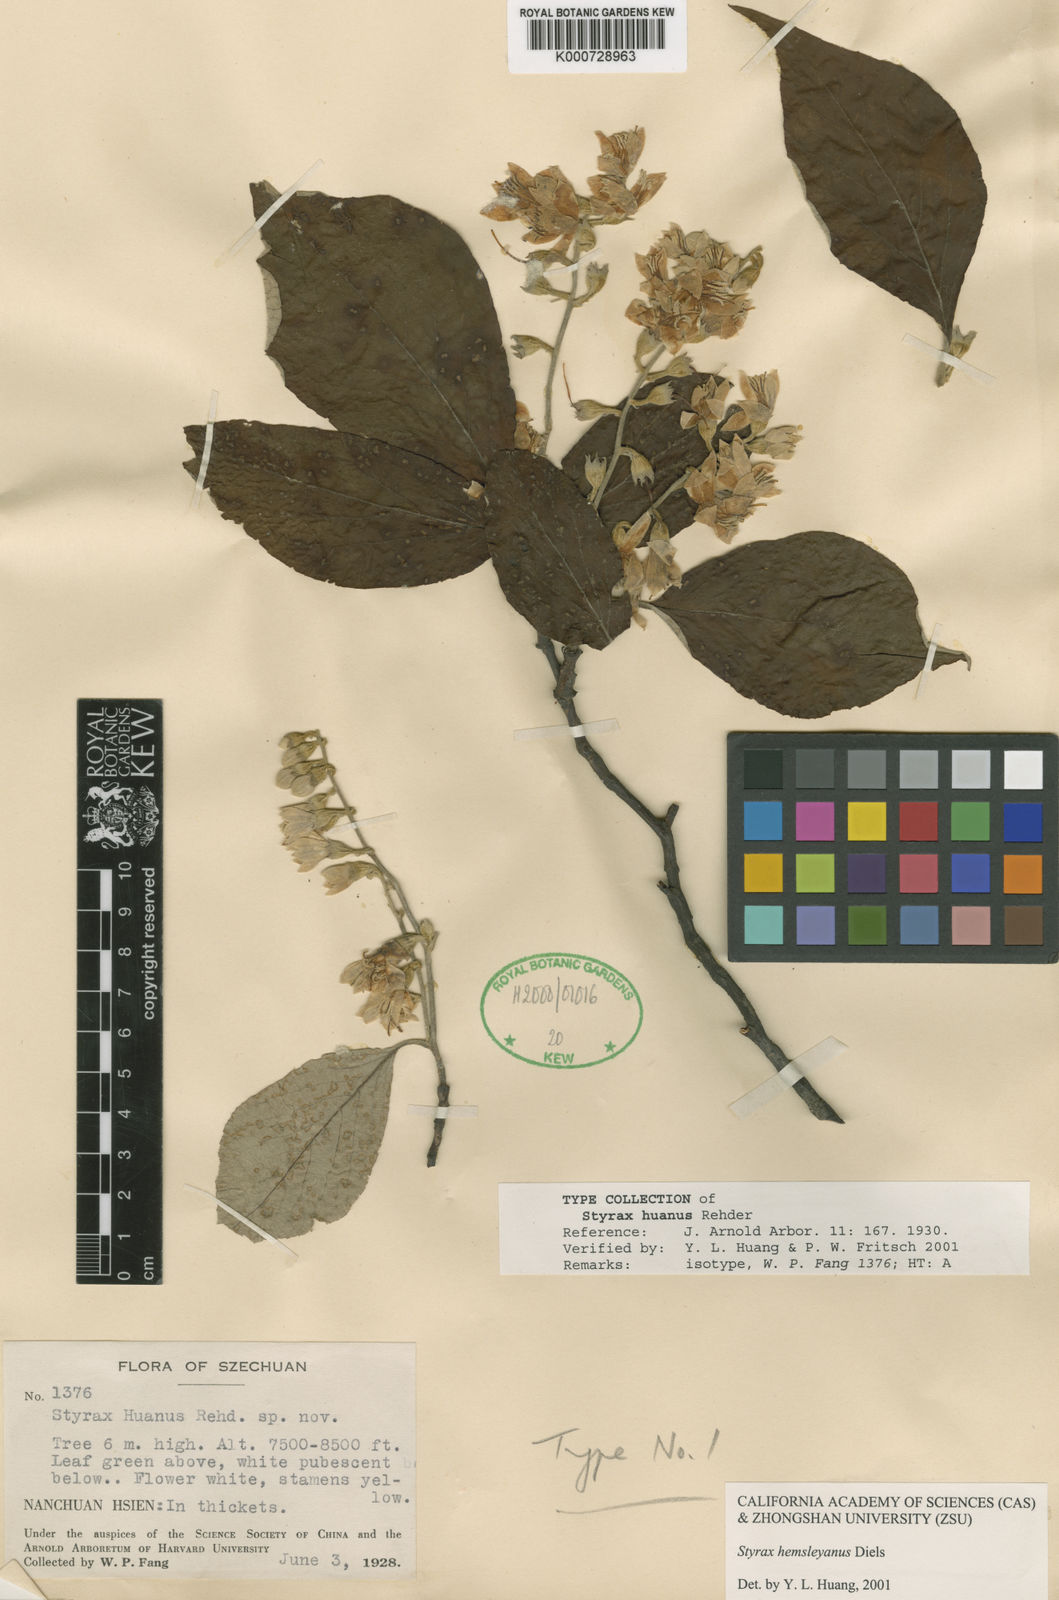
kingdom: Plantae
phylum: Tracheophyta
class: Magnoliopsida
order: Ericales
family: Styracaceae
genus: Styrax
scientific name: Styrax hemsleyanus
